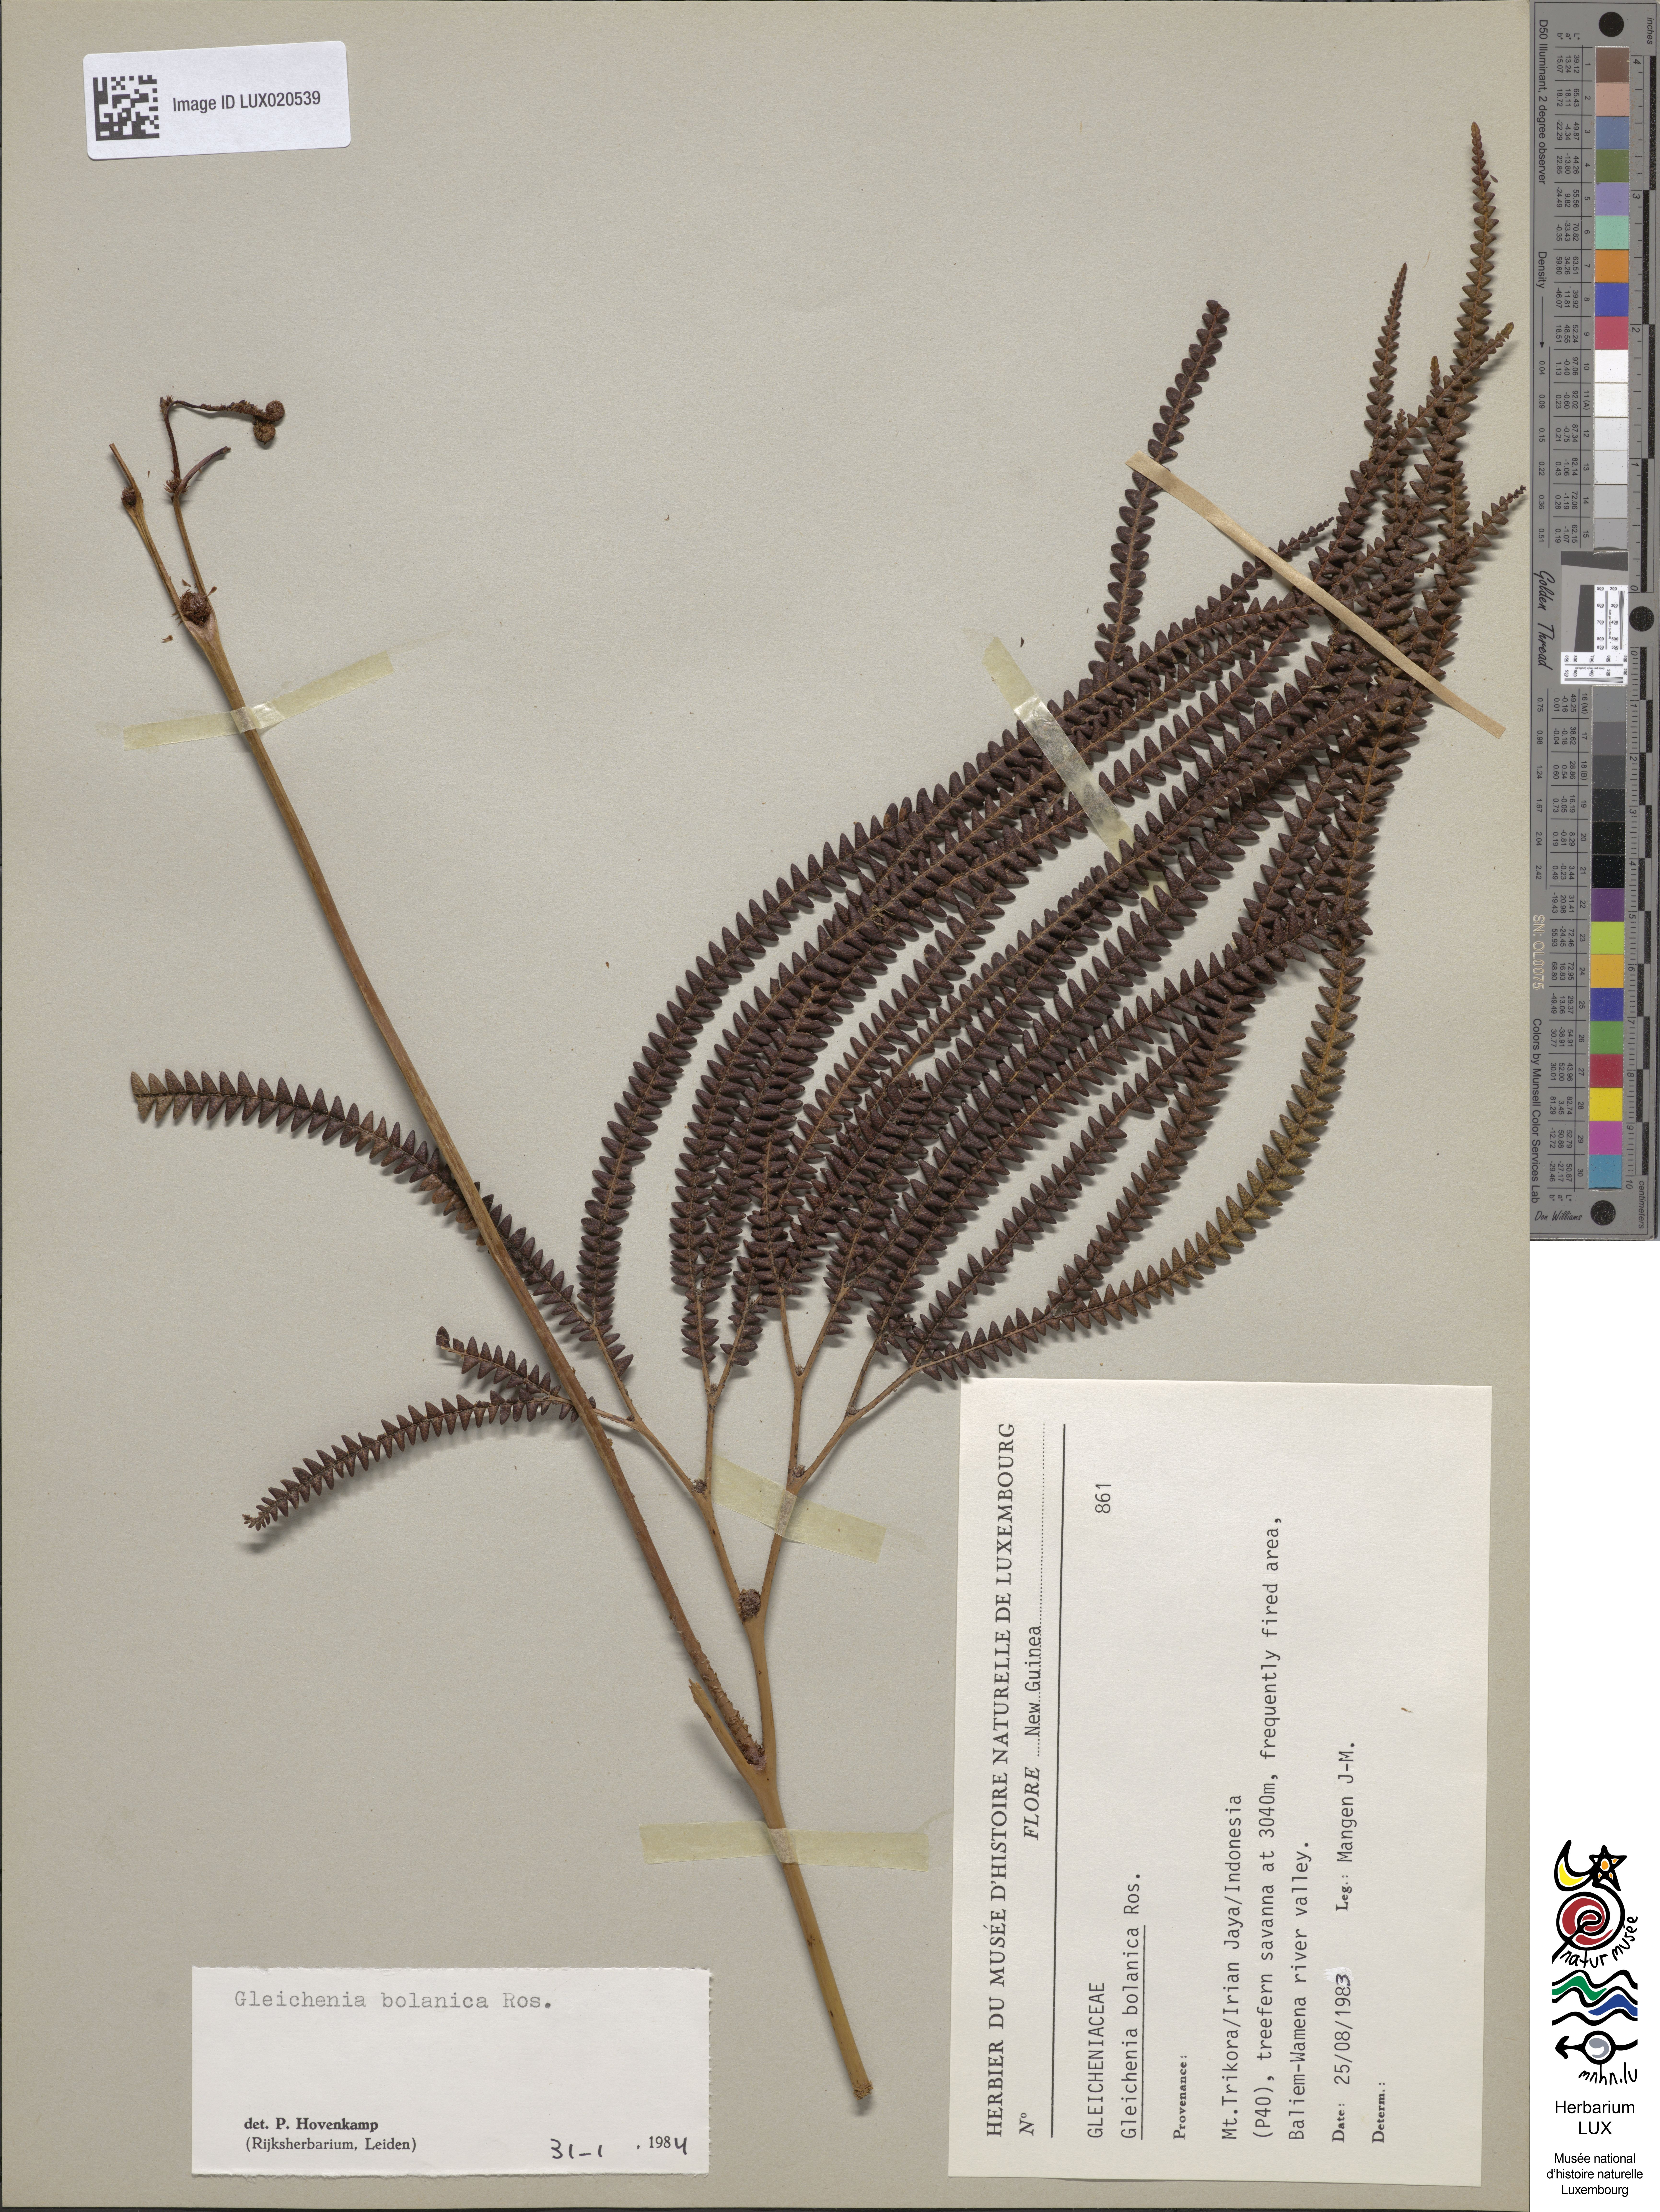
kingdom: Plantae
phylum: Tracheophyta
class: Polypodiopsida
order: Gleicheniales
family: Gleicheniaceae
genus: Sticherus
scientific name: Sticherus bolanicus
